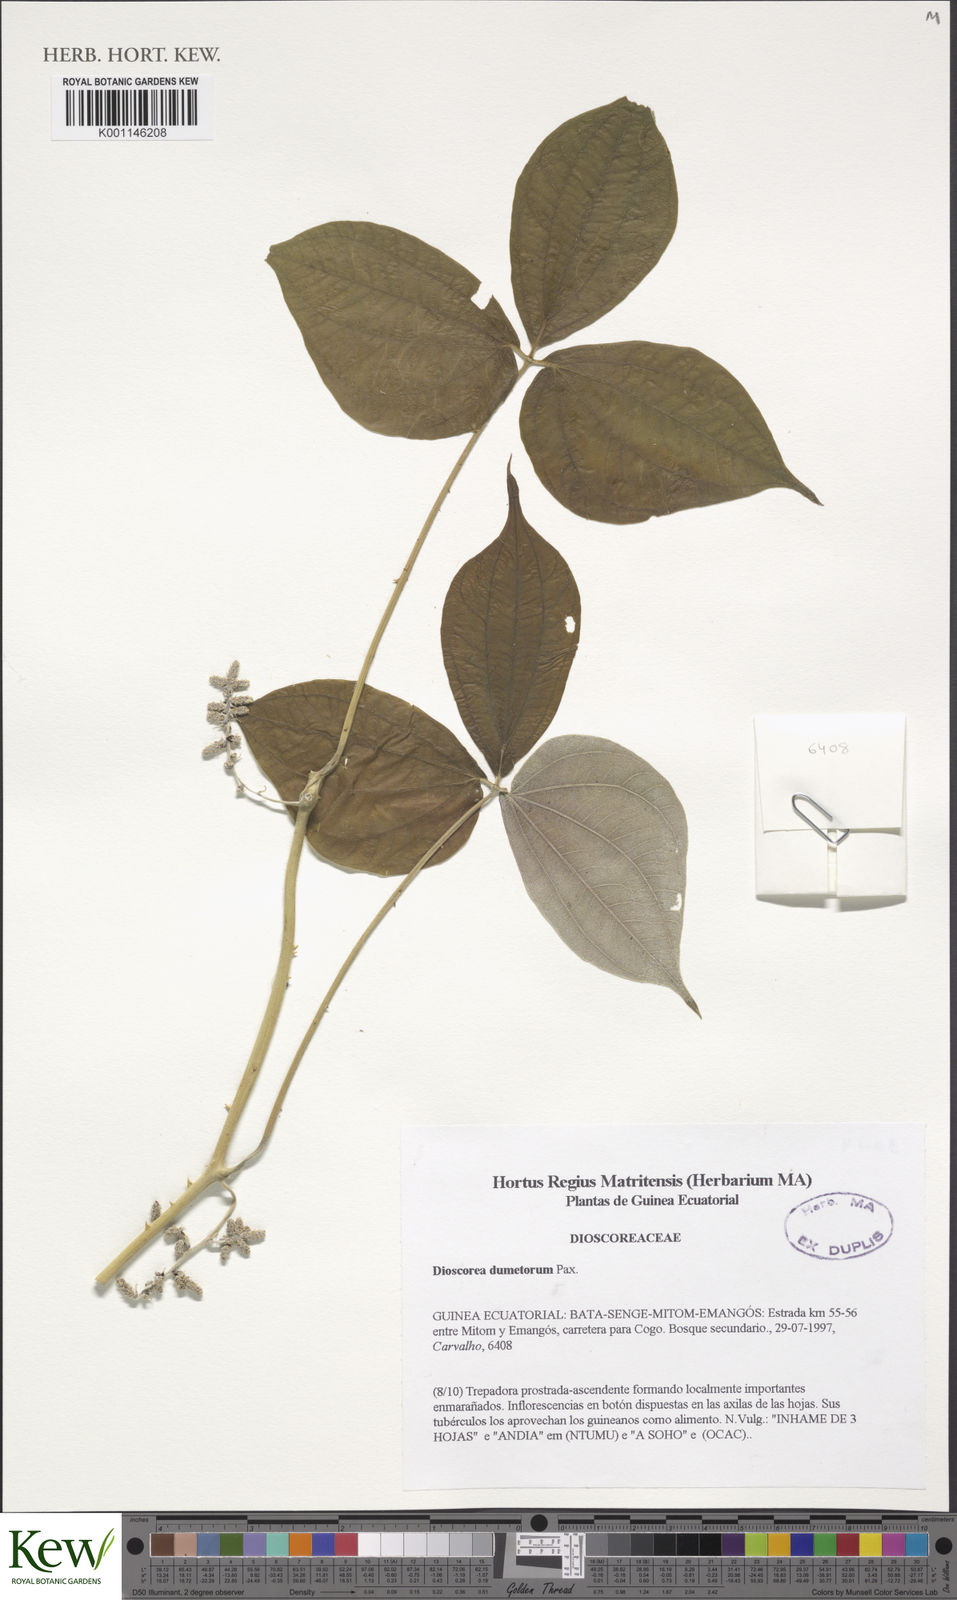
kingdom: Plantae
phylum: Tracheophyta
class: Liliopsida
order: Dioscoreales
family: Dioscoreaceae
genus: Dioscorea
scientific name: Dioscorea dumetorum
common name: African bitter yam
